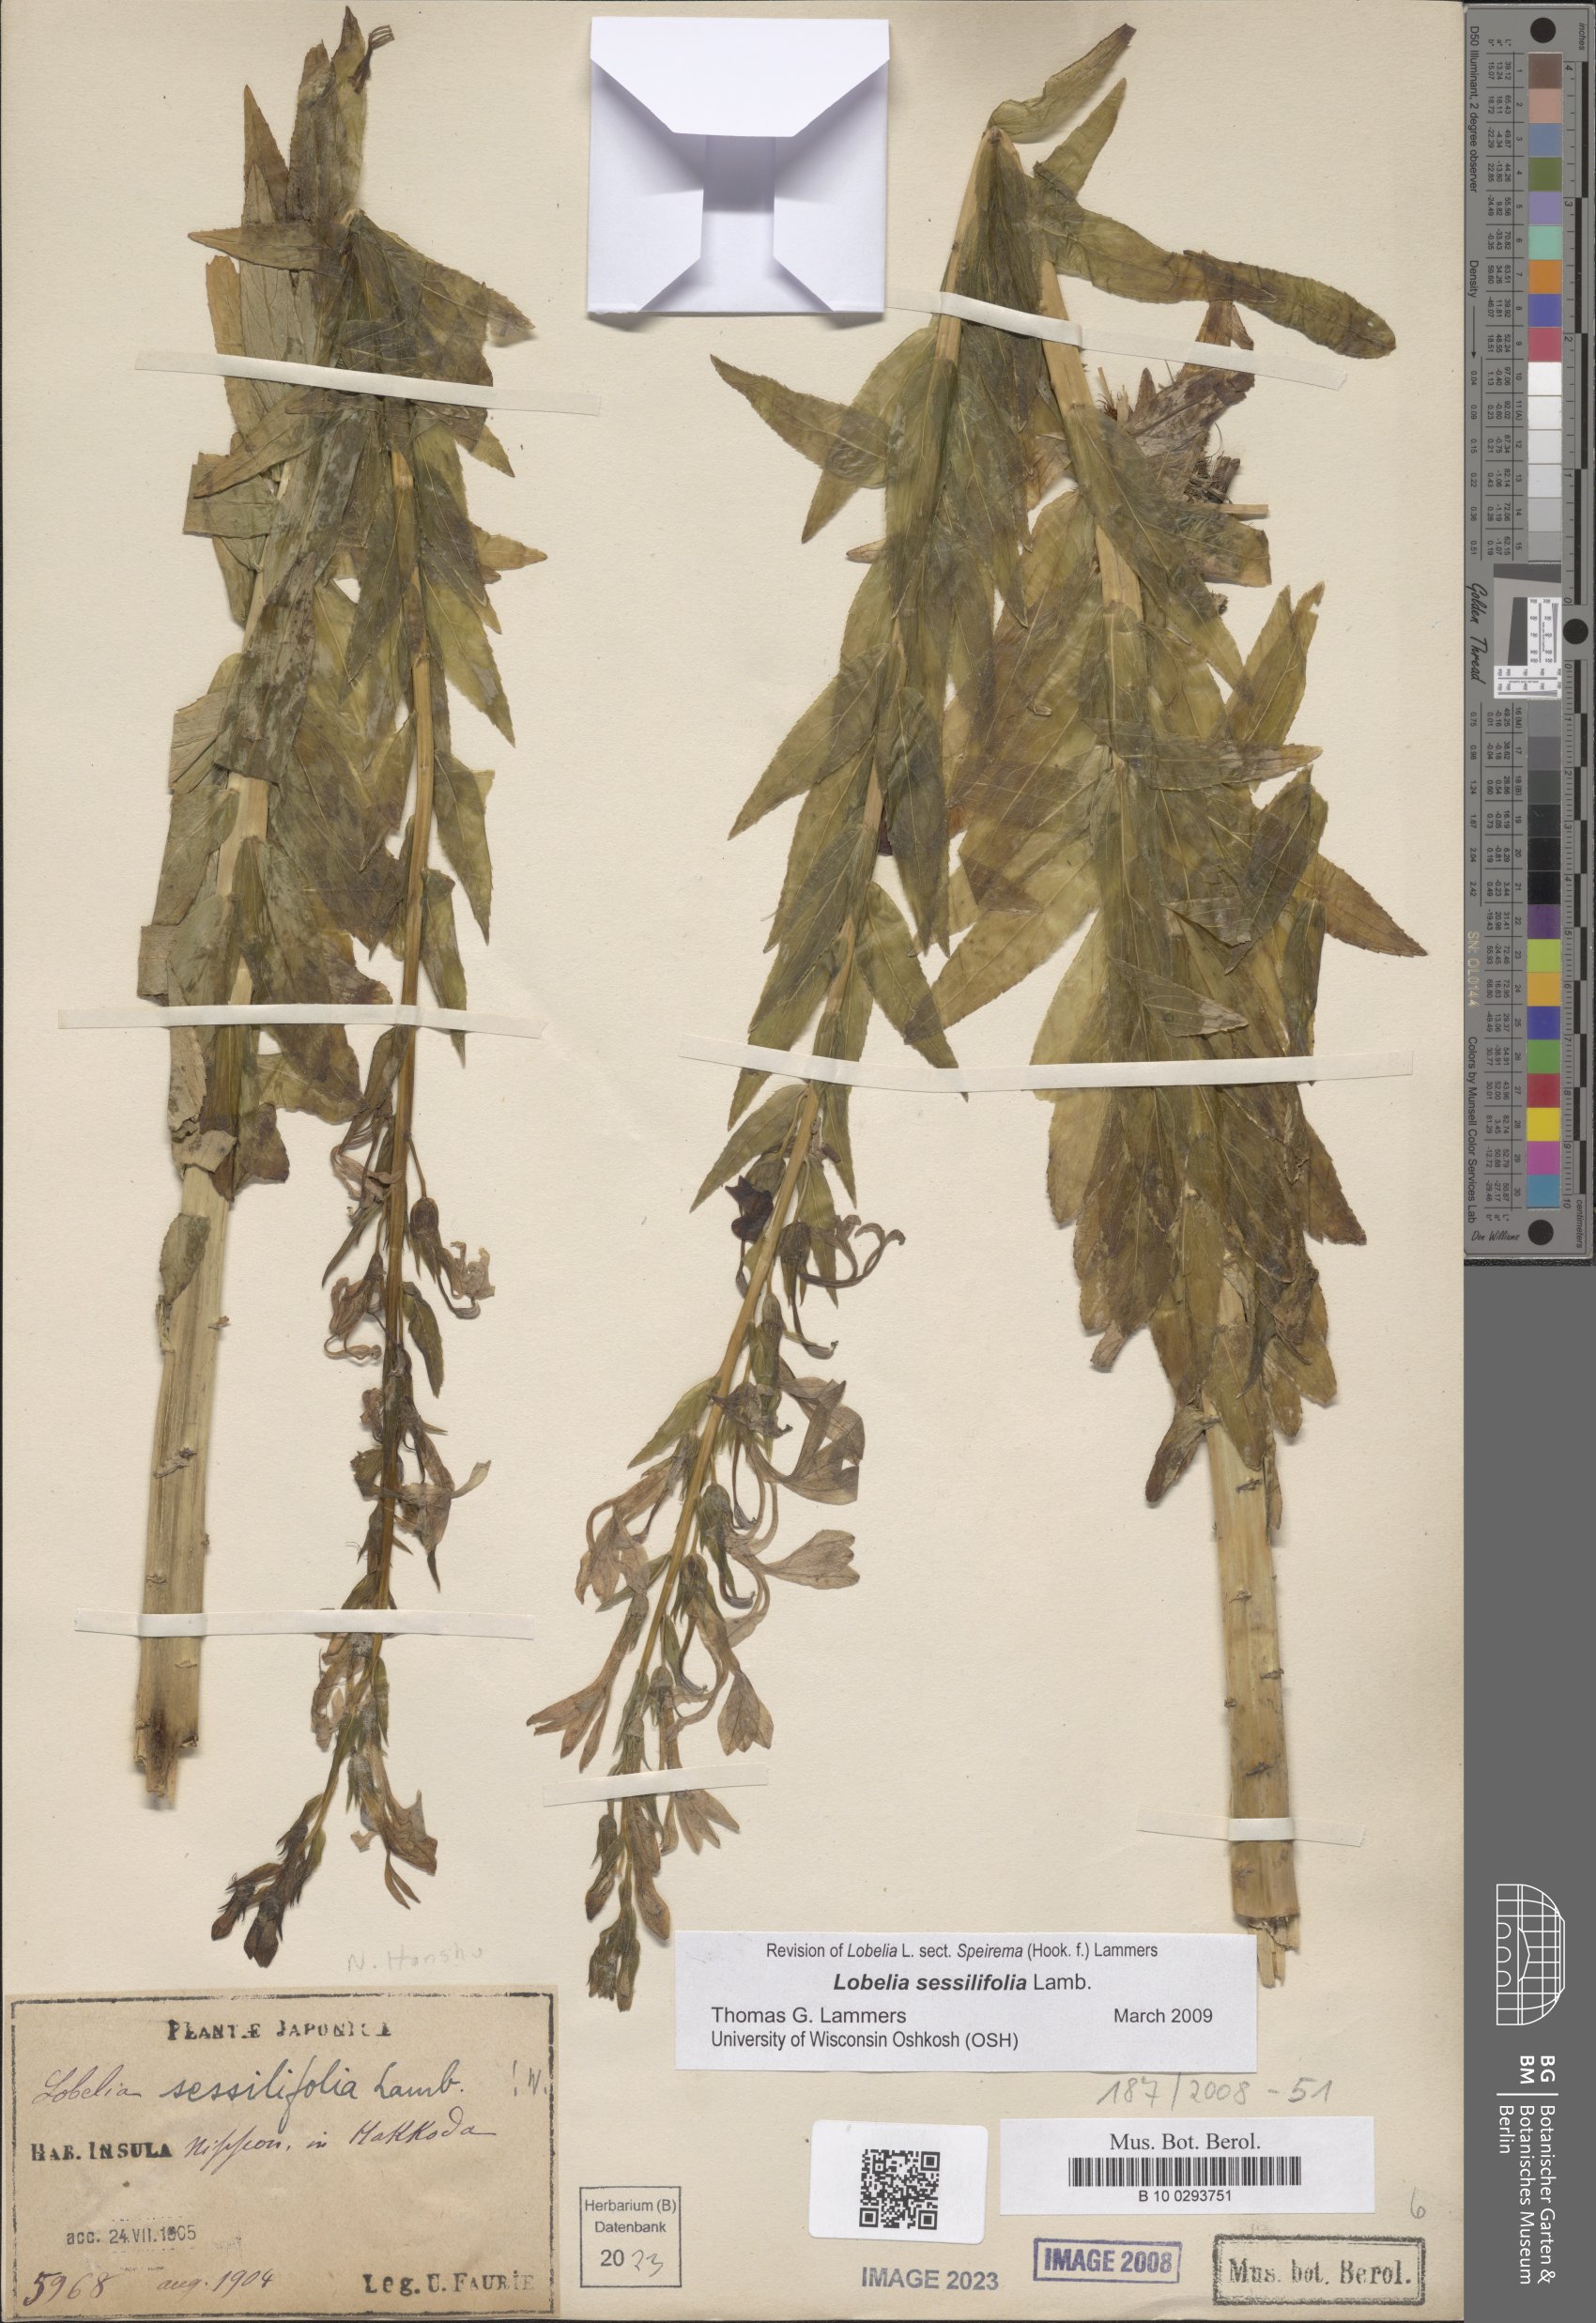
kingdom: Plantae
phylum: Tracheophyta
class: Magnoliopsida
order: Asterales
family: Campanulaceae
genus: Lobelia
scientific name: Lobelia sessilifolia
